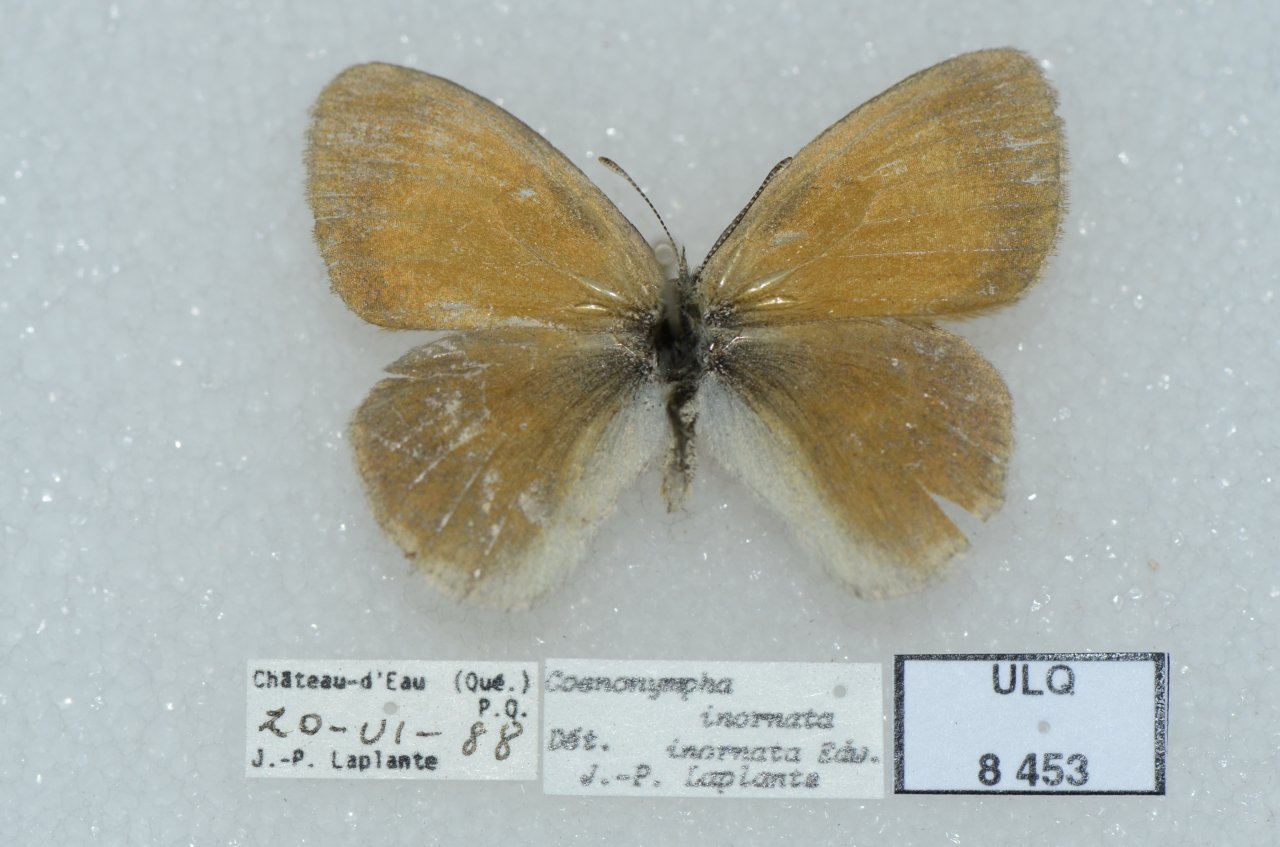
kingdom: Animalia
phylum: Arthropoda
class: Insecta
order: Lepidoptera
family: Nymphalidae
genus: Coenonympha
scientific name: Coenonympha tullia
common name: Large Heath
